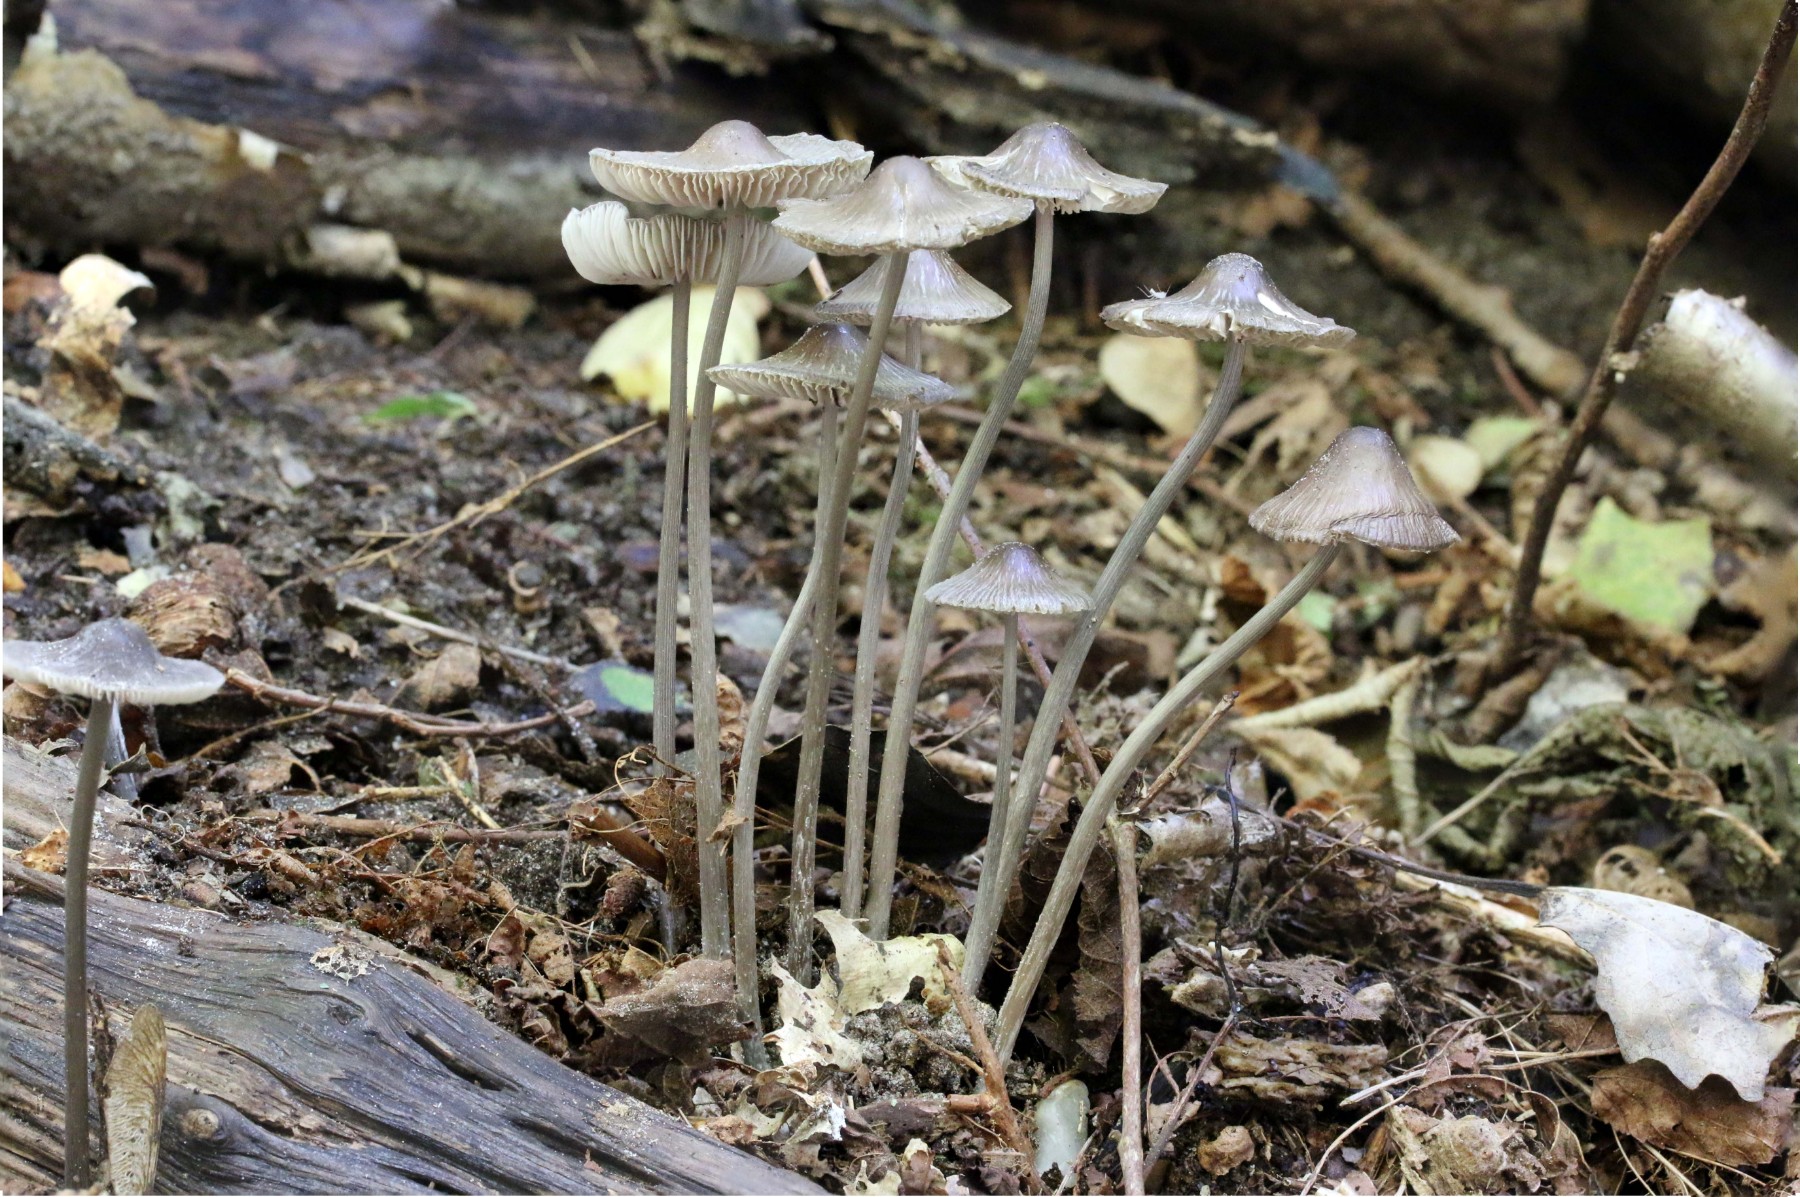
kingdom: Fungi
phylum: Basidiomycota
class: Agaricomycetes
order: Agaricales
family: Mycenaceae
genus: Mycena
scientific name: Mycena polygramma
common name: mangestribet huesvamp
